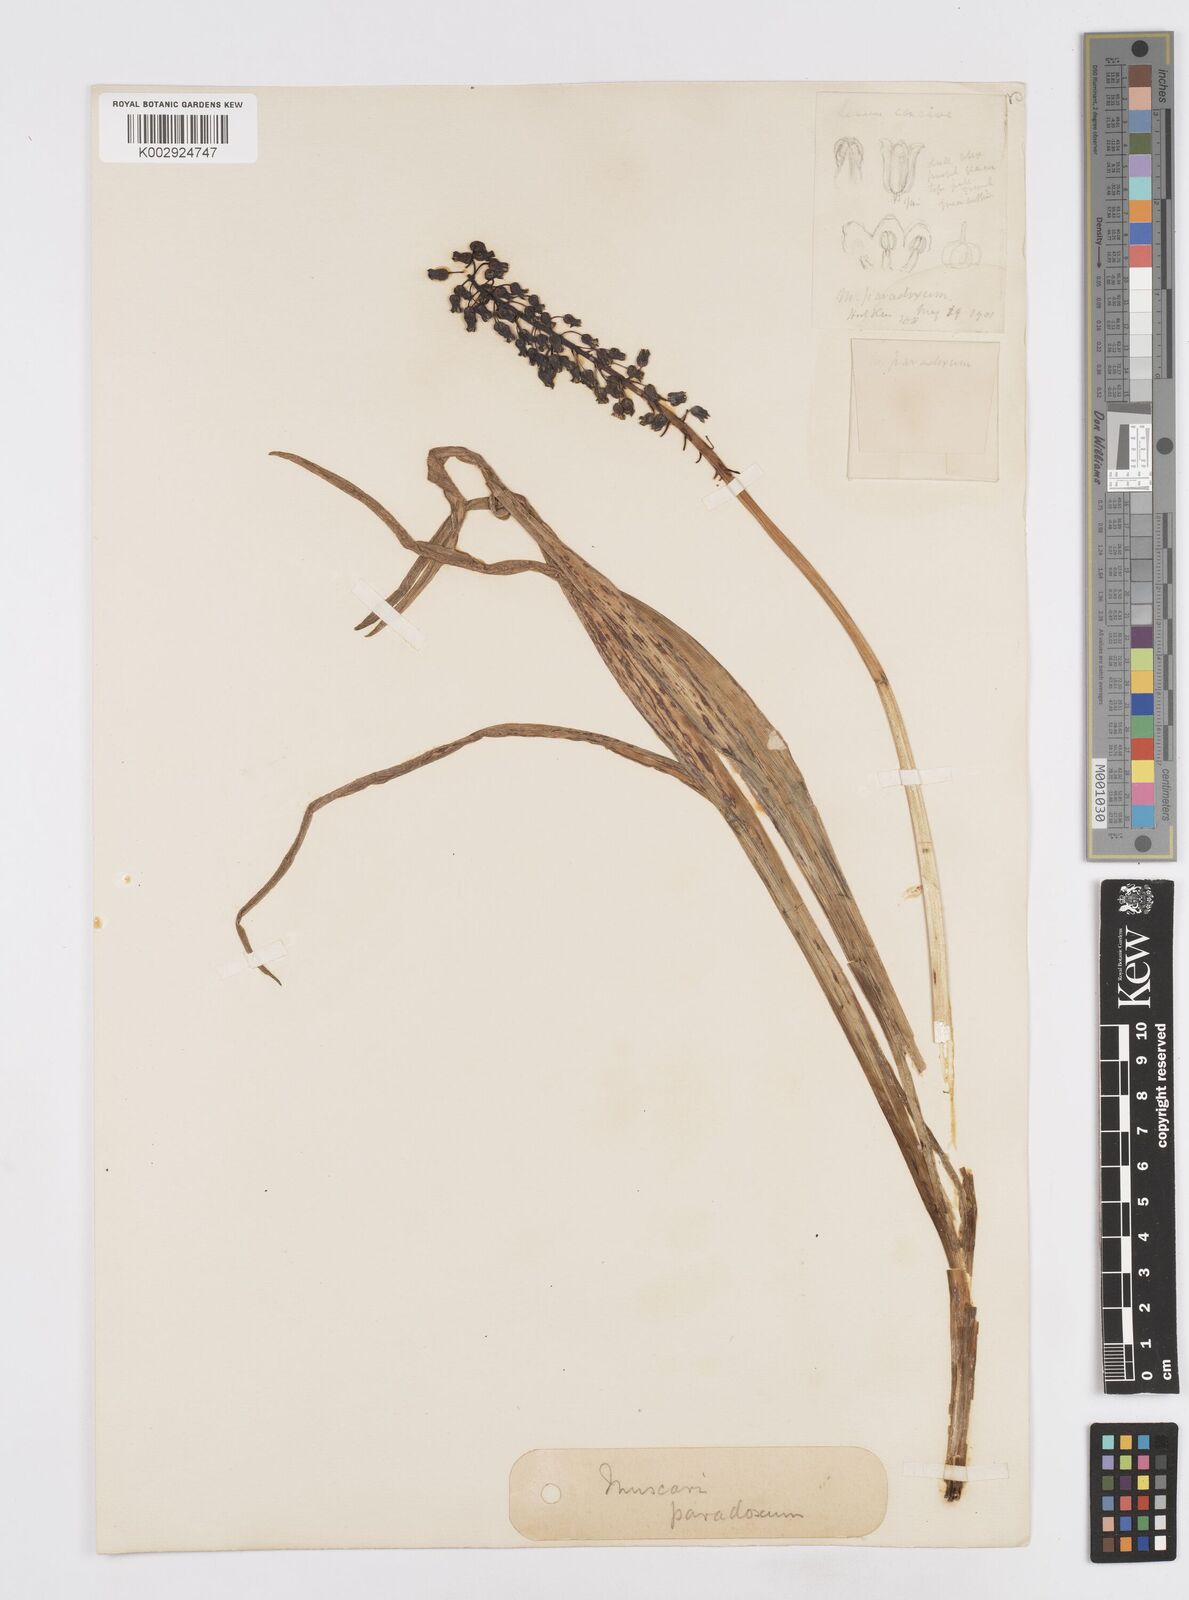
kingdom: Plantae
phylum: Tracheophyta
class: Liliopsida
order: Asparagales
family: Asparagaceae
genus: Bellevalia
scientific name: Bellevalia paradoxa
